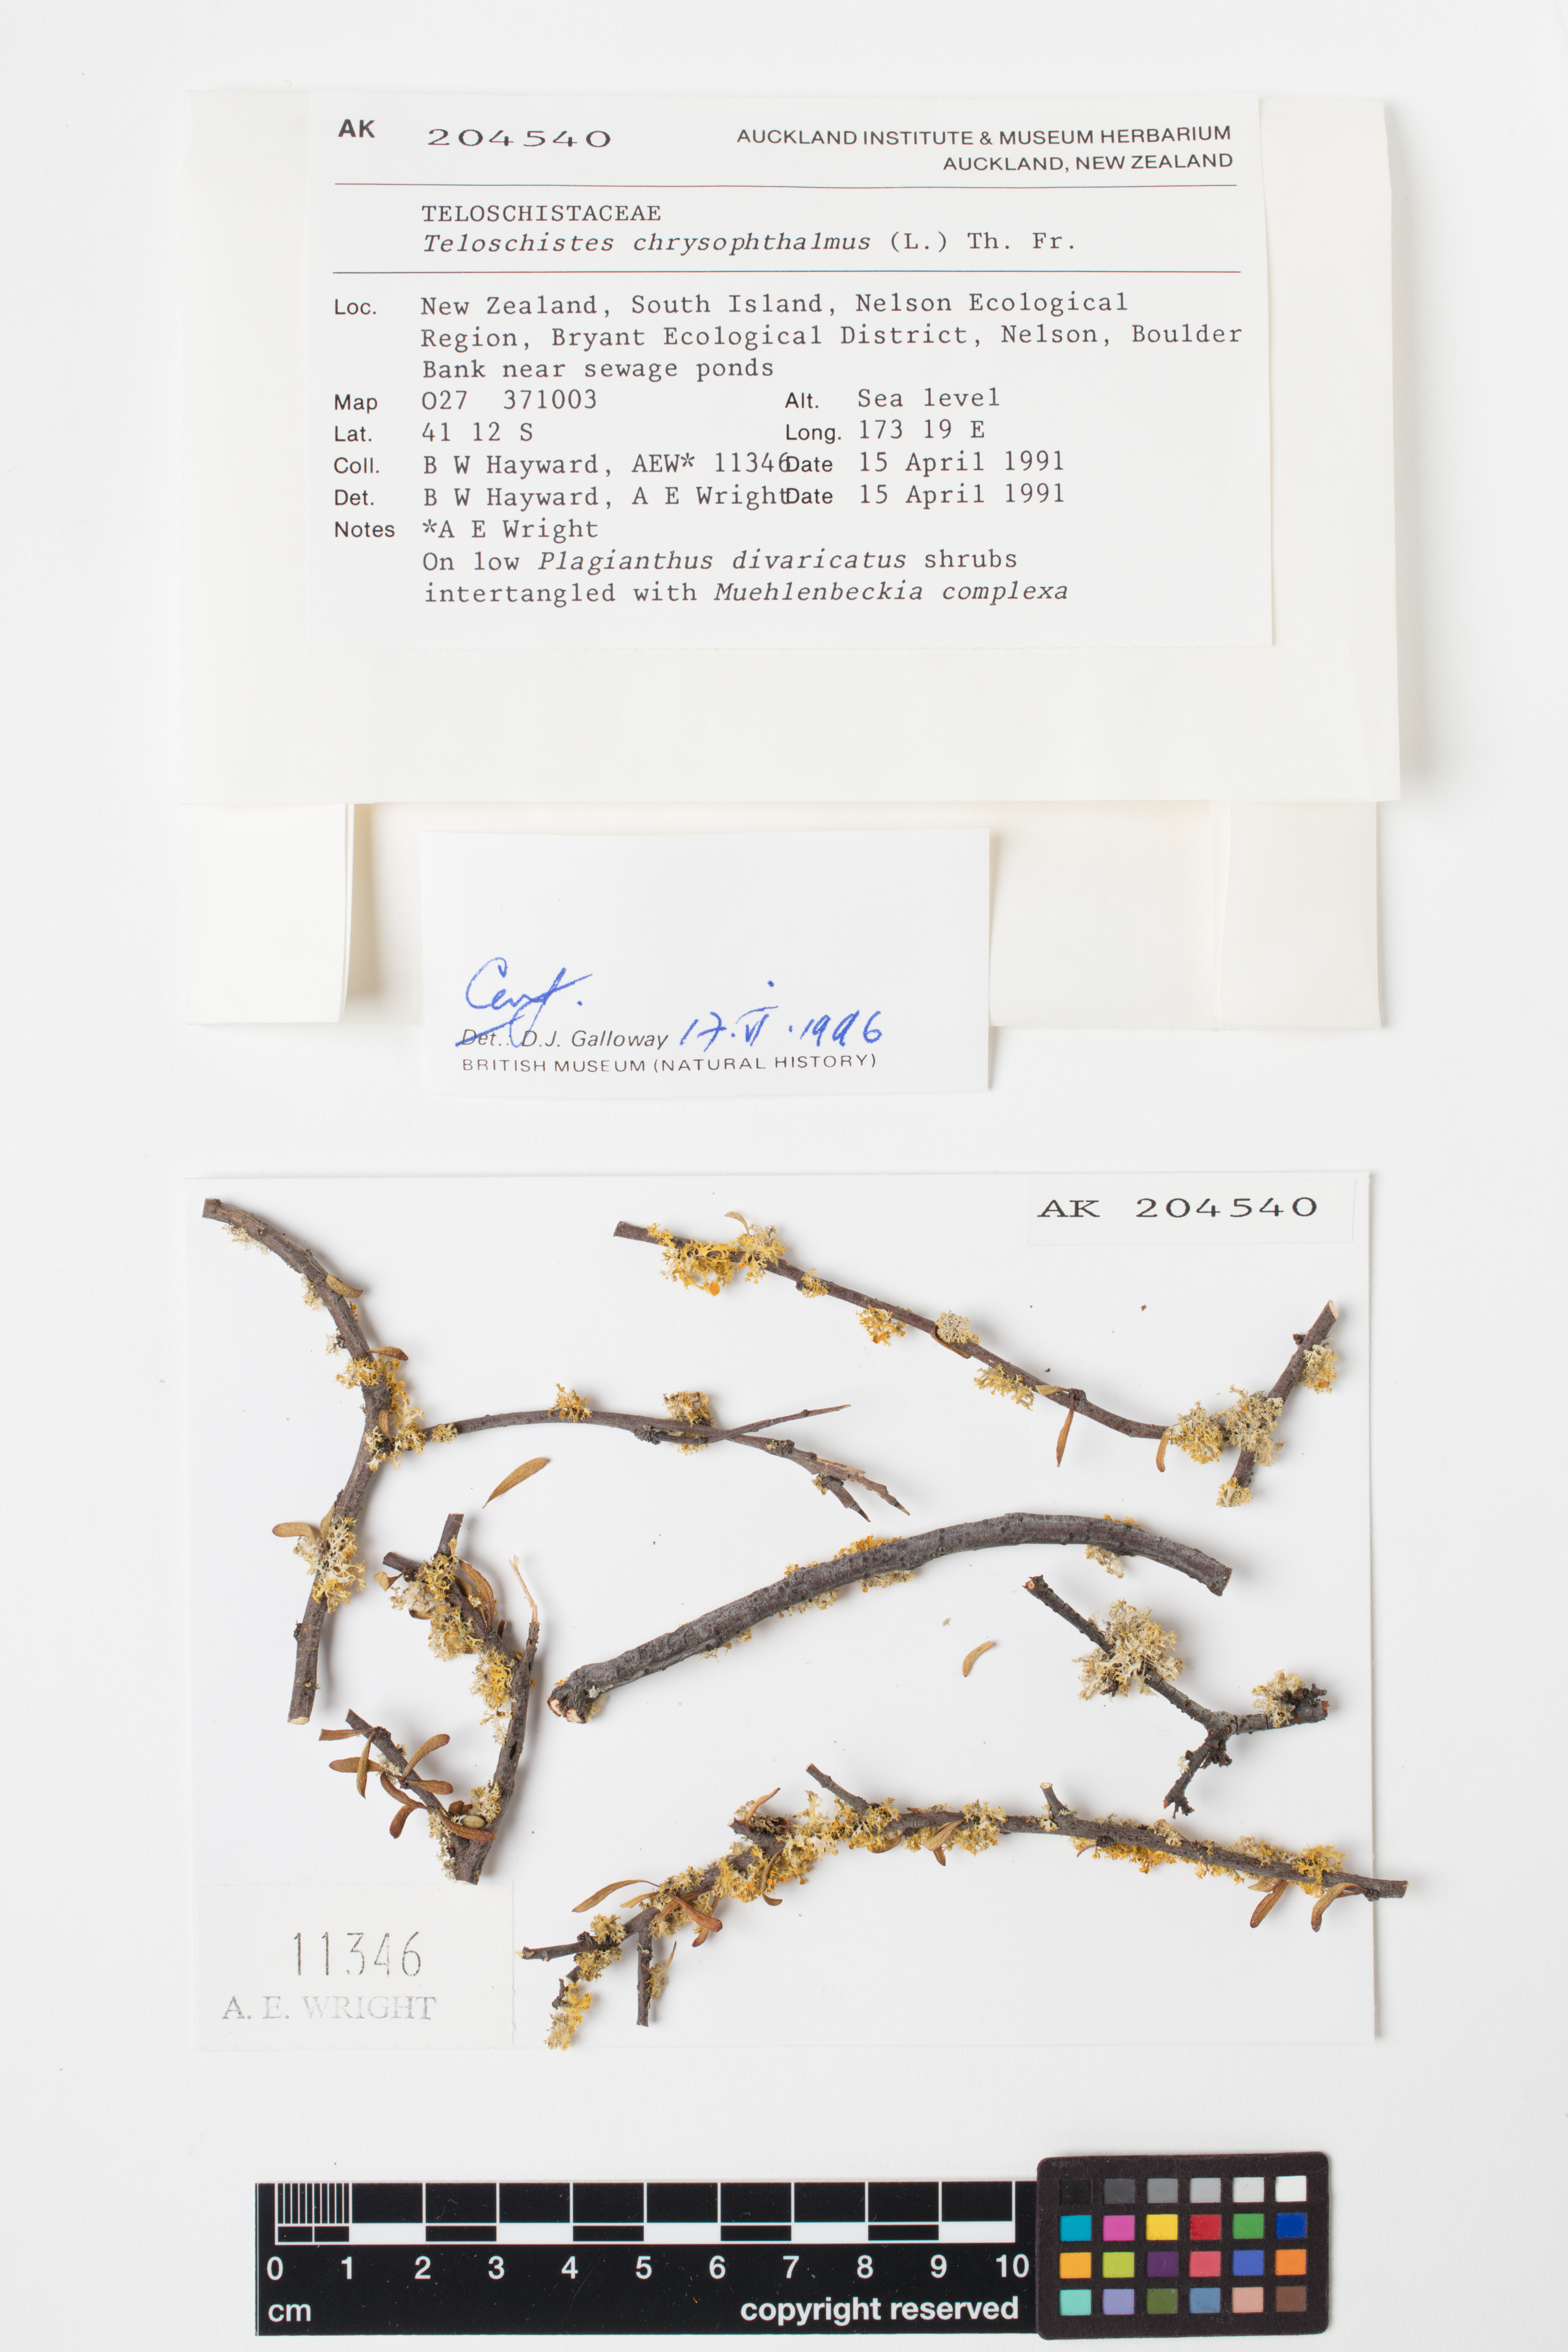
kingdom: Fungi
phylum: Ascomycota
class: Lecanoromycetes
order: Teloschistales
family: Teloschistaceae
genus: Niorma
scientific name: Niorma chrysophthalma
